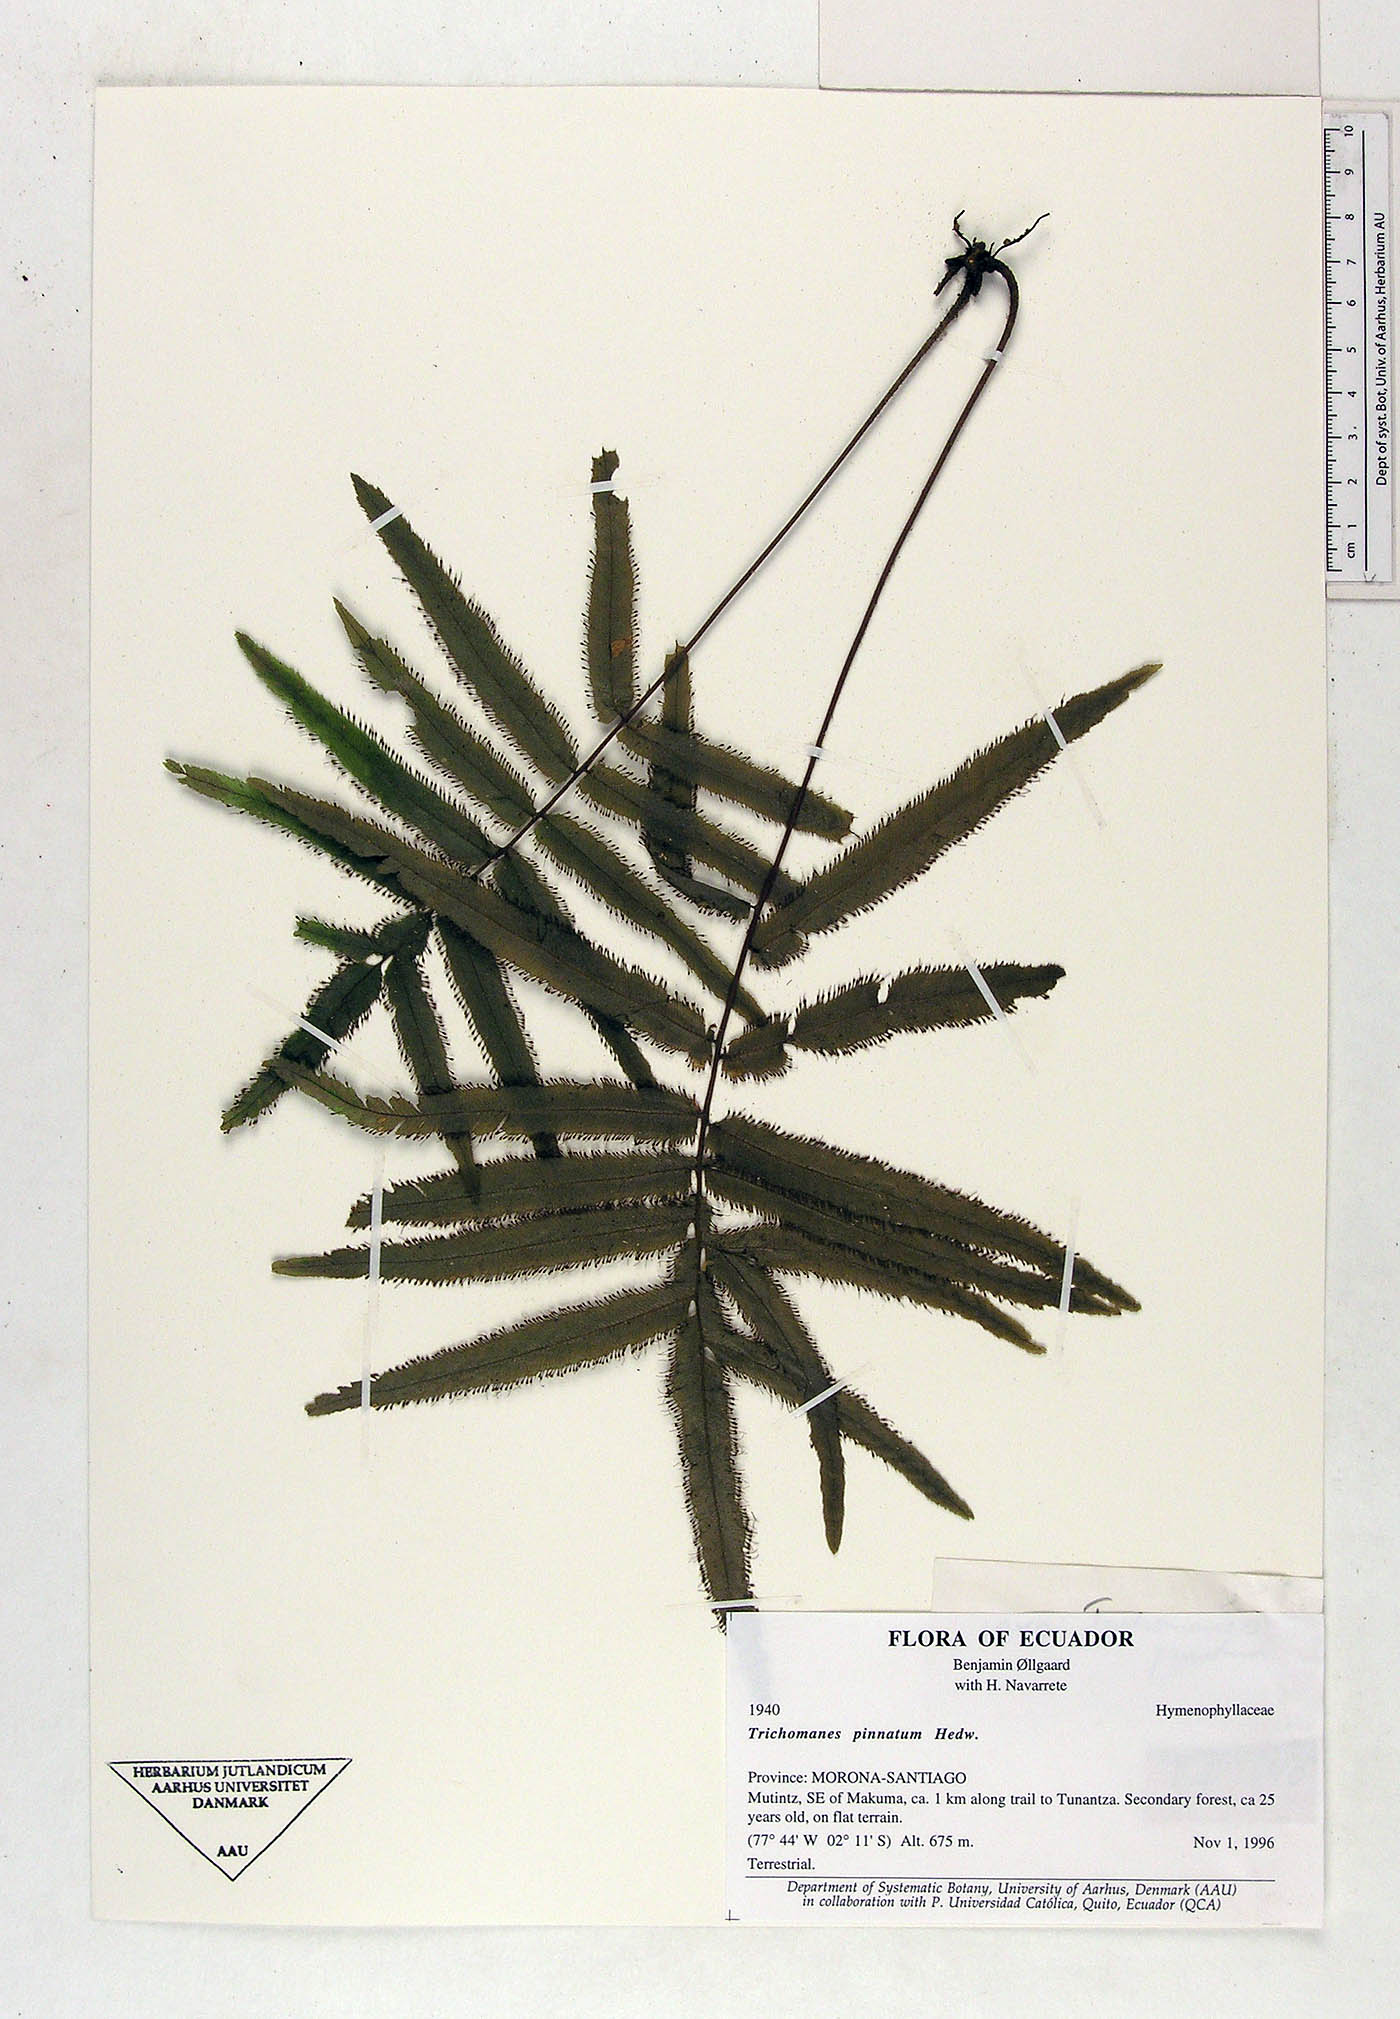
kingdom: Plantae
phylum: Tracheophyta
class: Polypodiopsida
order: Hymenophyllales
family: Hymenophyllaceae
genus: Trichomanes
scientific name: Trichomanes pinnatum
